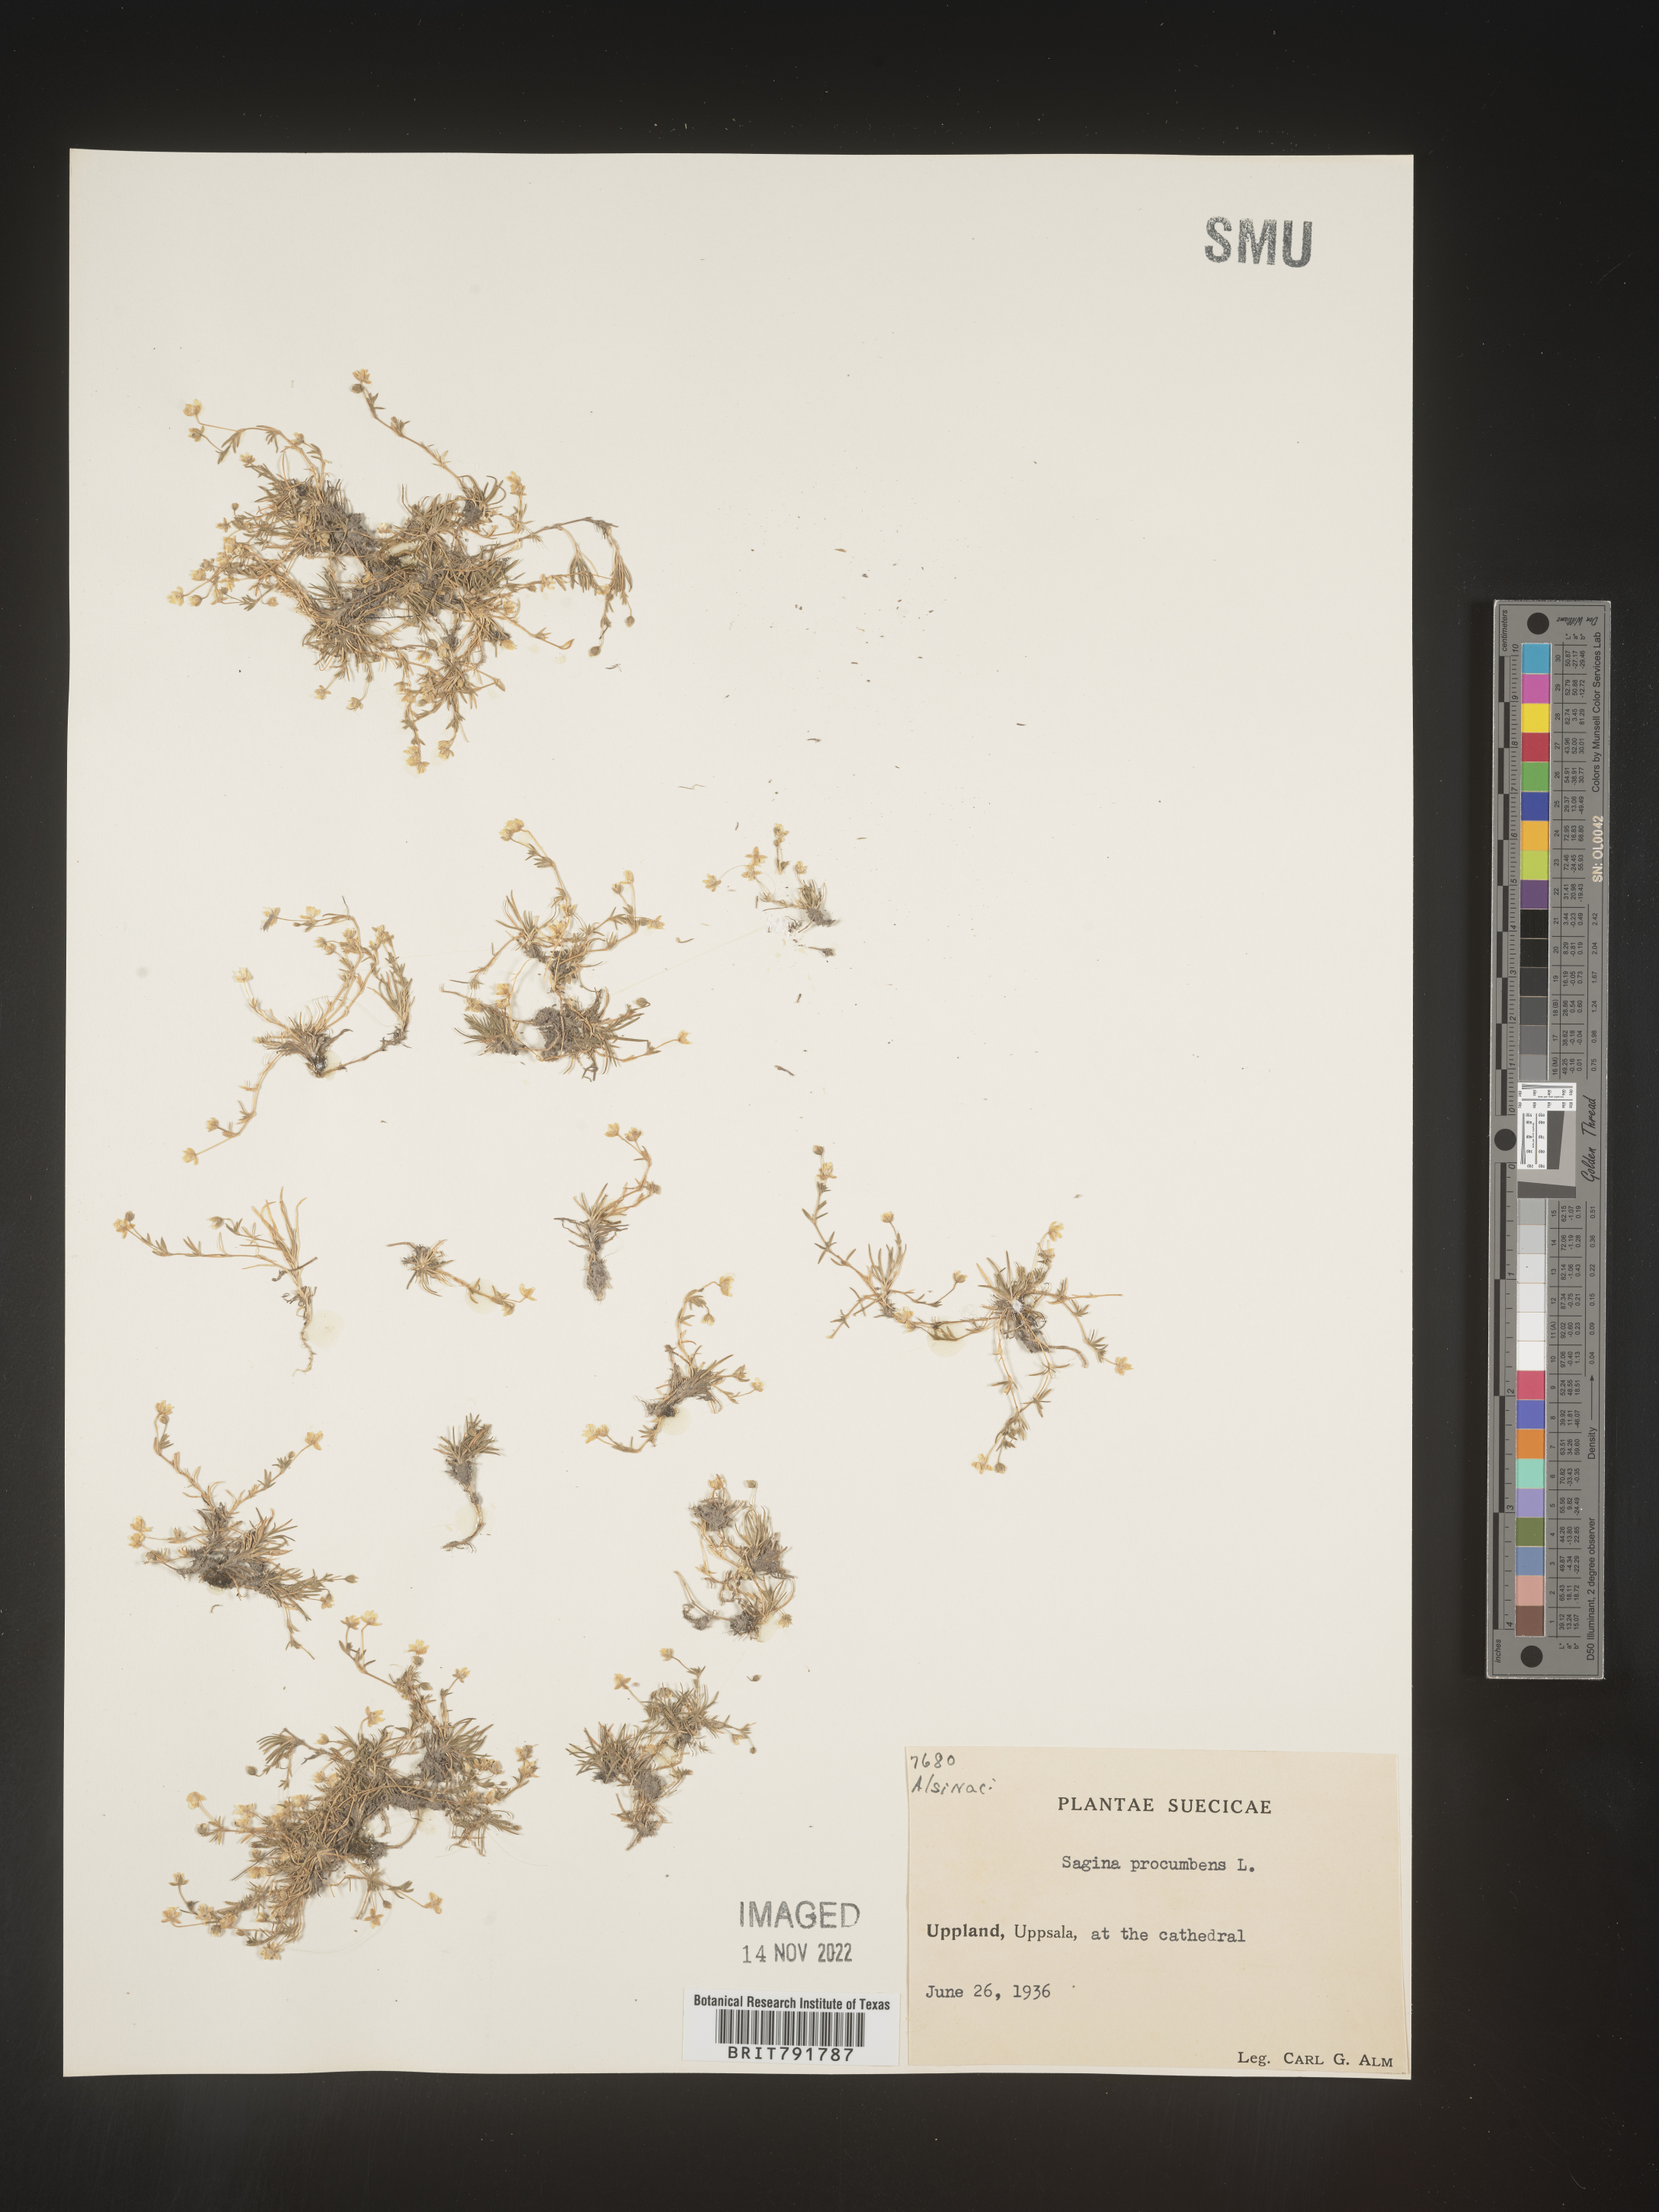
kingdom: Plantae
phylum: Tracheophyta
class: Magnoliopsida
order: Caryophyllales
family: Caryophyllaceae
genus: Sagina
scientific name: Sagina
